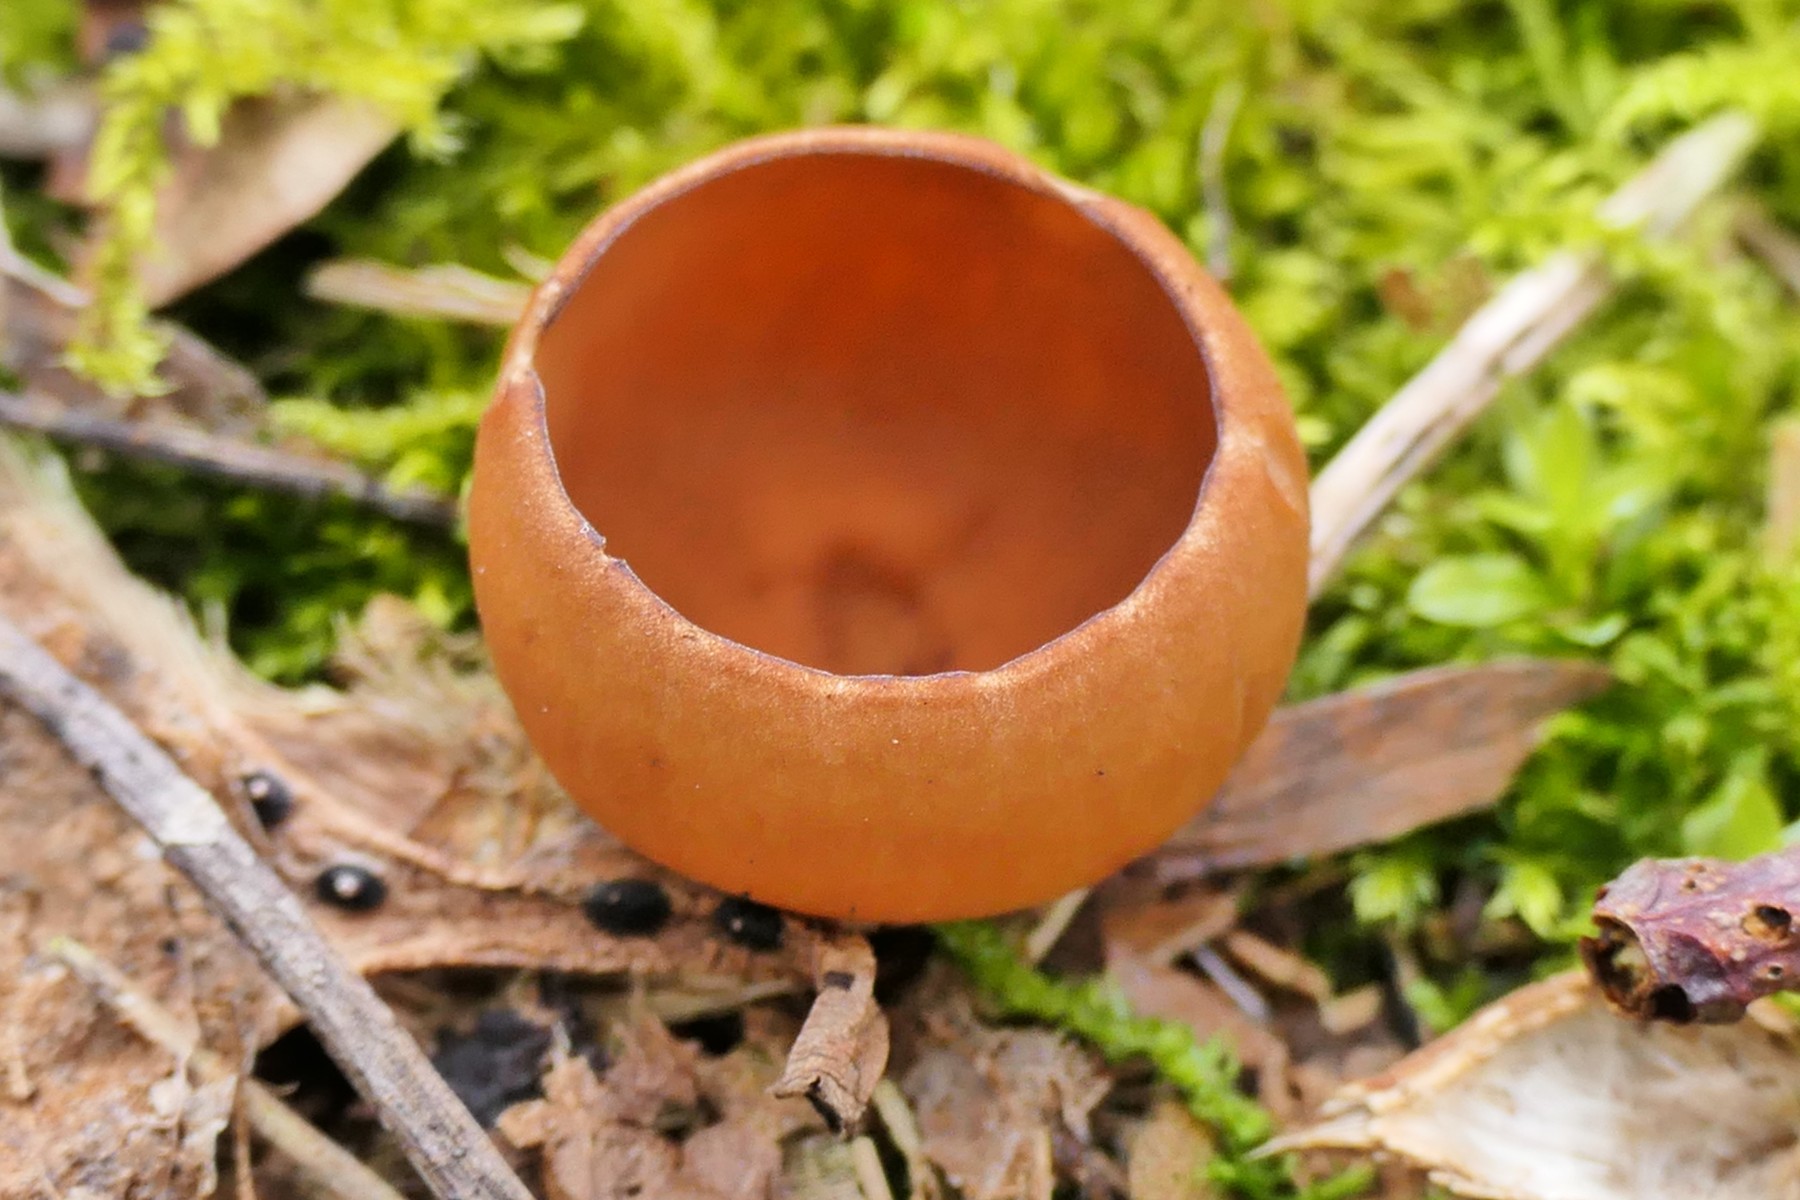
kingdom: Fungi
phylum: Ascomycota
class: Leotiomycetes
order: Helotiales
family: Sclerotiniaceae
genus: Dumontinia
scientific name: Dumontinia tuberosa
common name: anemone-knoldskive
